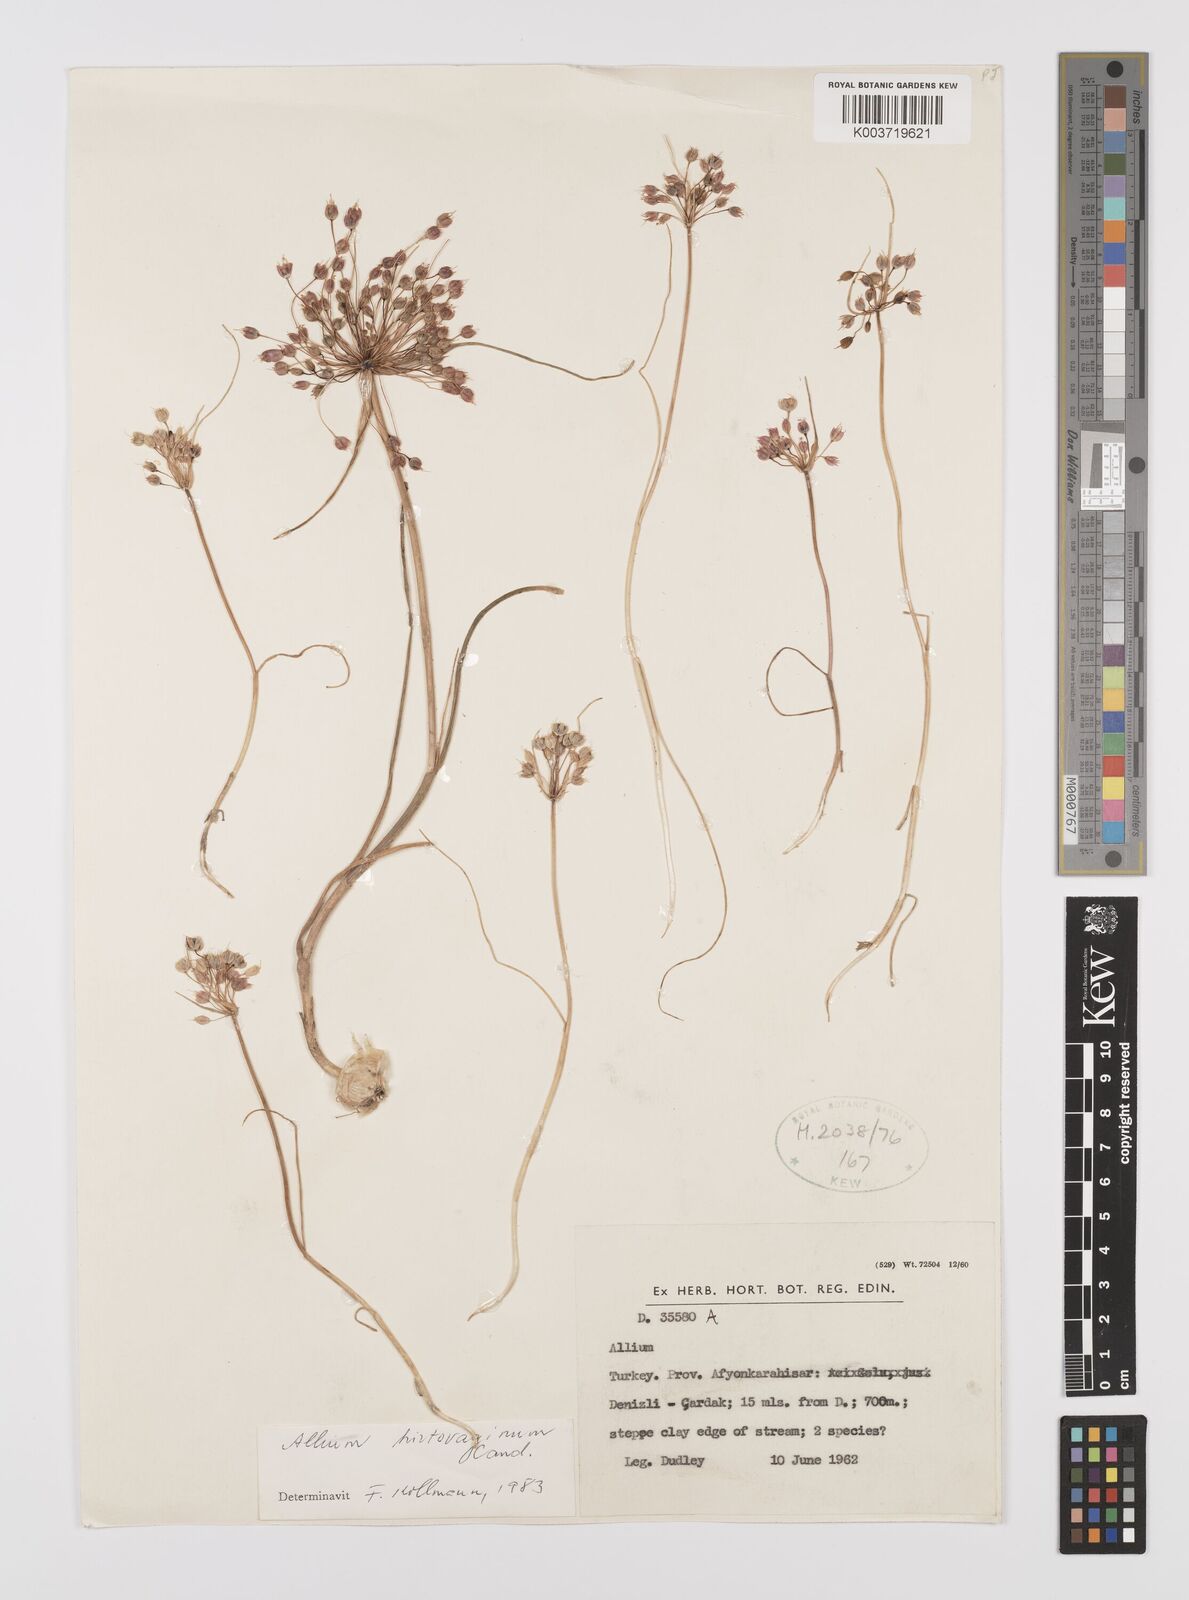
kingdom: Plantae
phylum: Tracheophyta
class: Liliopsida
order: Asparagales
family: Amaryllidaceae
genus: Allium
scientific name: Allium hirtovaginum
